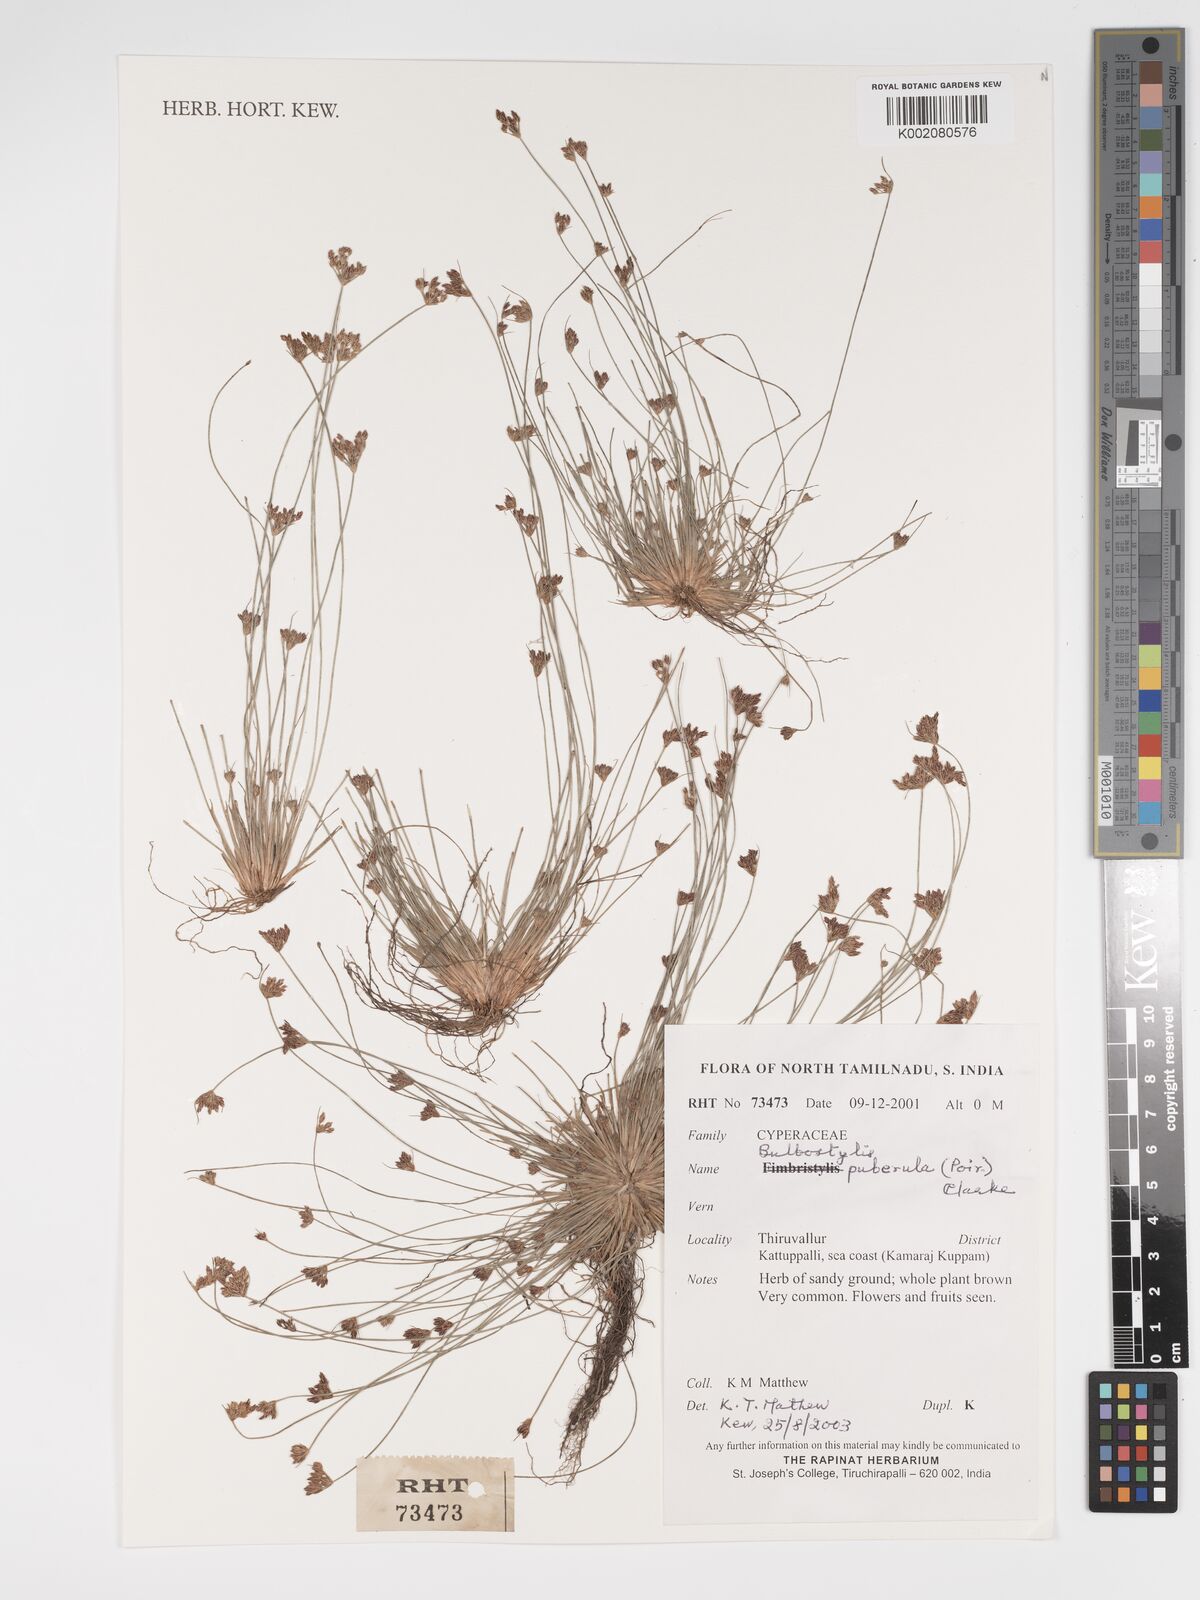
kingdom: Plantae
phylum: Tracheophyta
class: Liliopsida
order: Poales
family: Cyperaceae
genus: Bulbostylis
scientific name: Bulbostylis thouarsii
